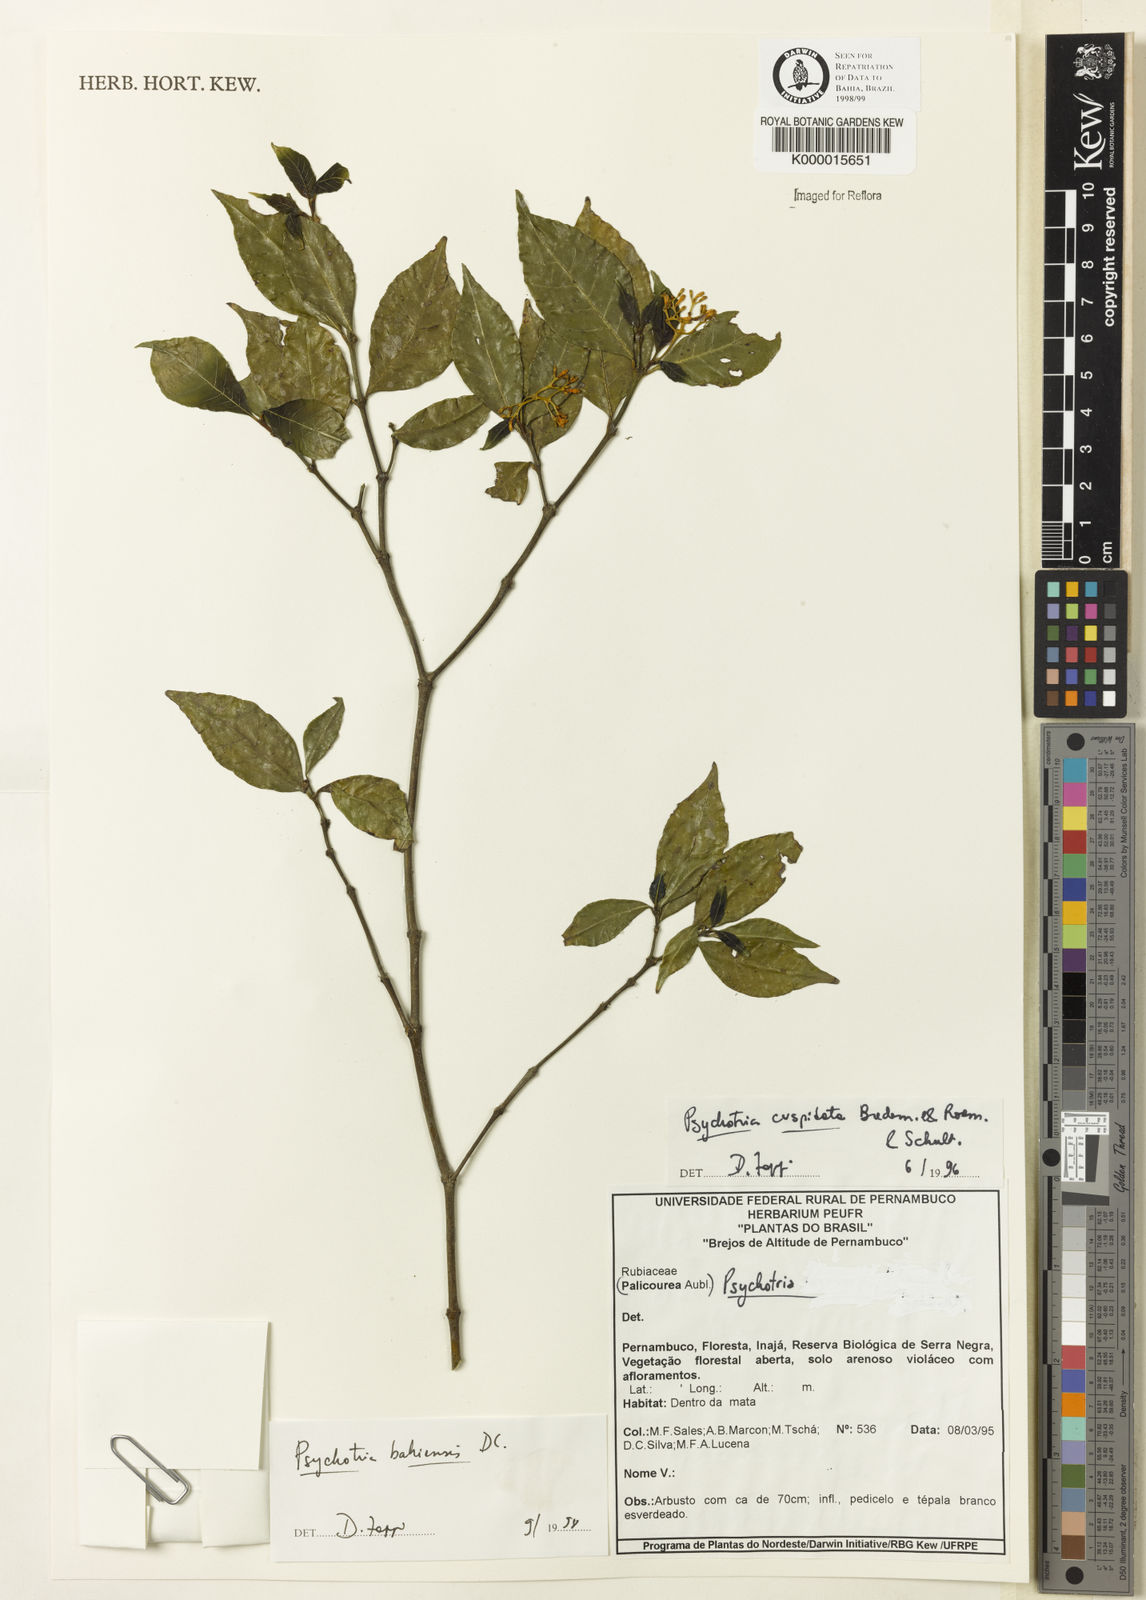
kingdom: Plantae
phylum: Tracheophyta
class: Magnoliopsida
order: Gentianales
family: Rubiaceae
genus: Psychotria
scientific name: Psychotria bahiensis
